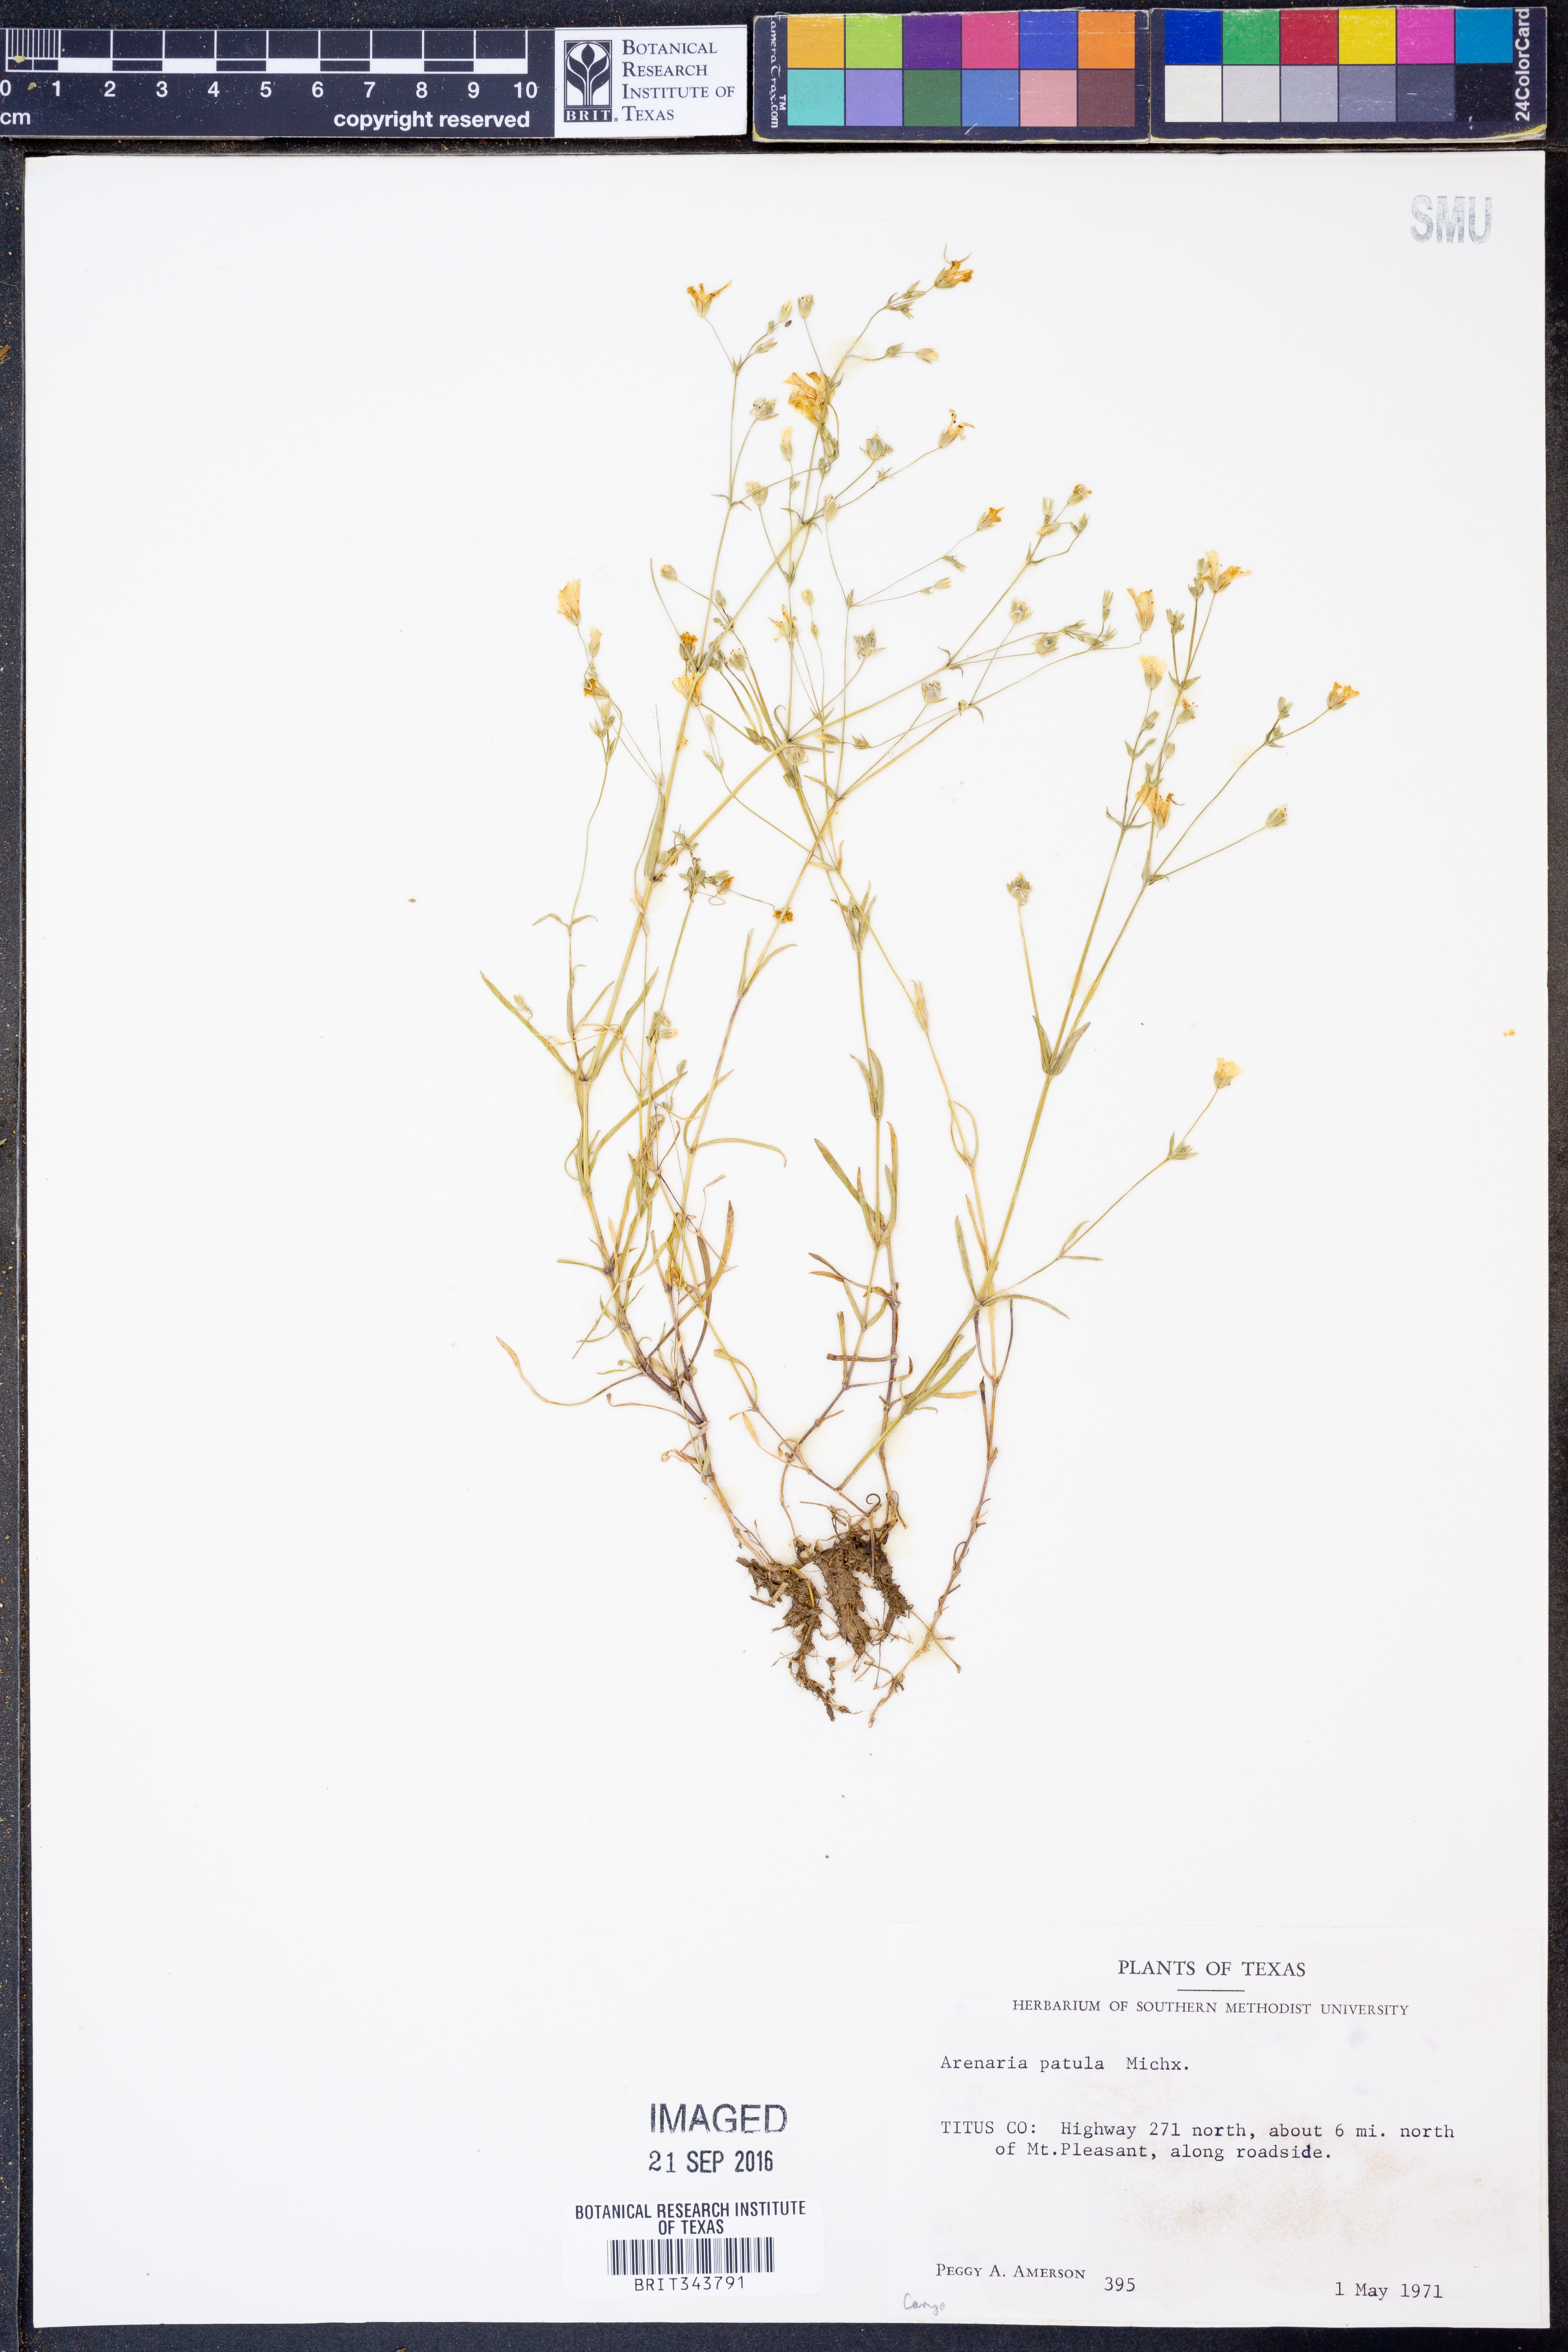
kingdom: Plantae
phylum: Tracheophyta
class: Magnoliopsida
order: Caryophyllales
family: Caryophyllaceae
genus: Mononeuria
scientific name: Mononeuria patula
